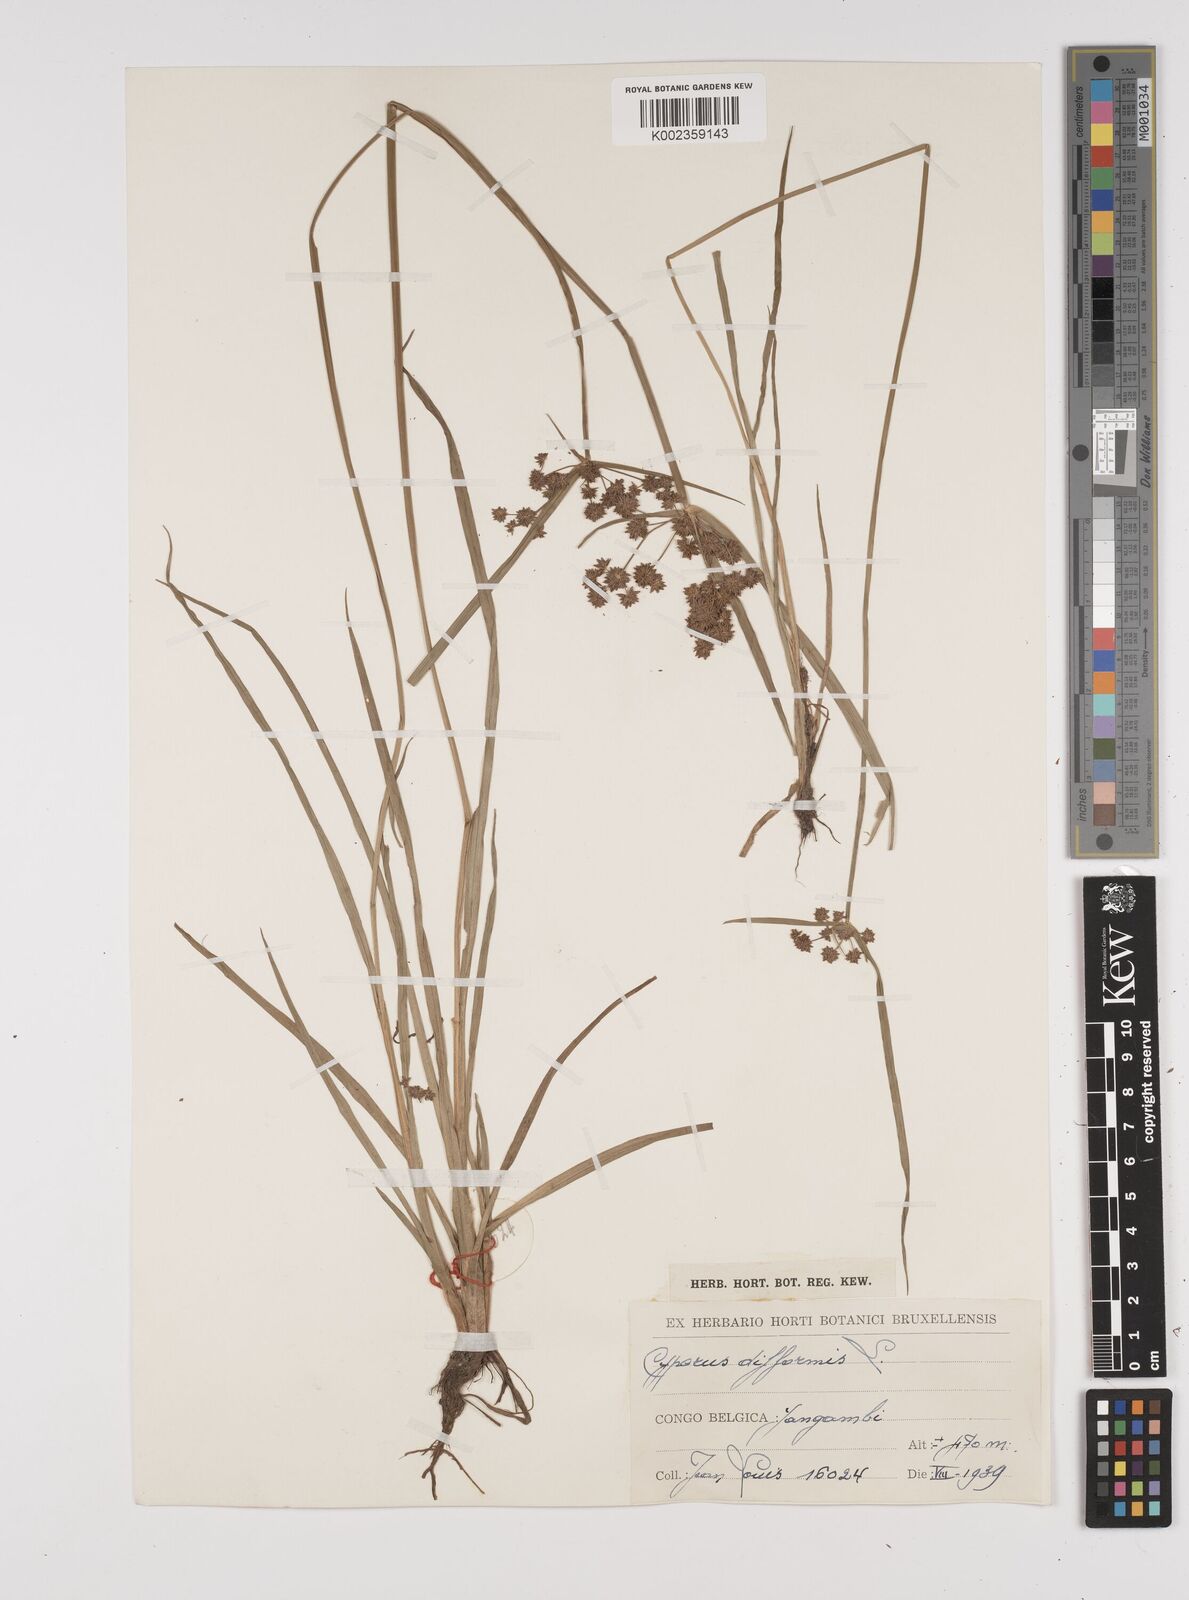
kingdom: Plantae
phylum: Tracheophyta
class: Liliopsida
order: Poales
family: Cyperaceae
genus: Cyperus
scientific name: Cyperus difformis
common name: Variable flatsedge
